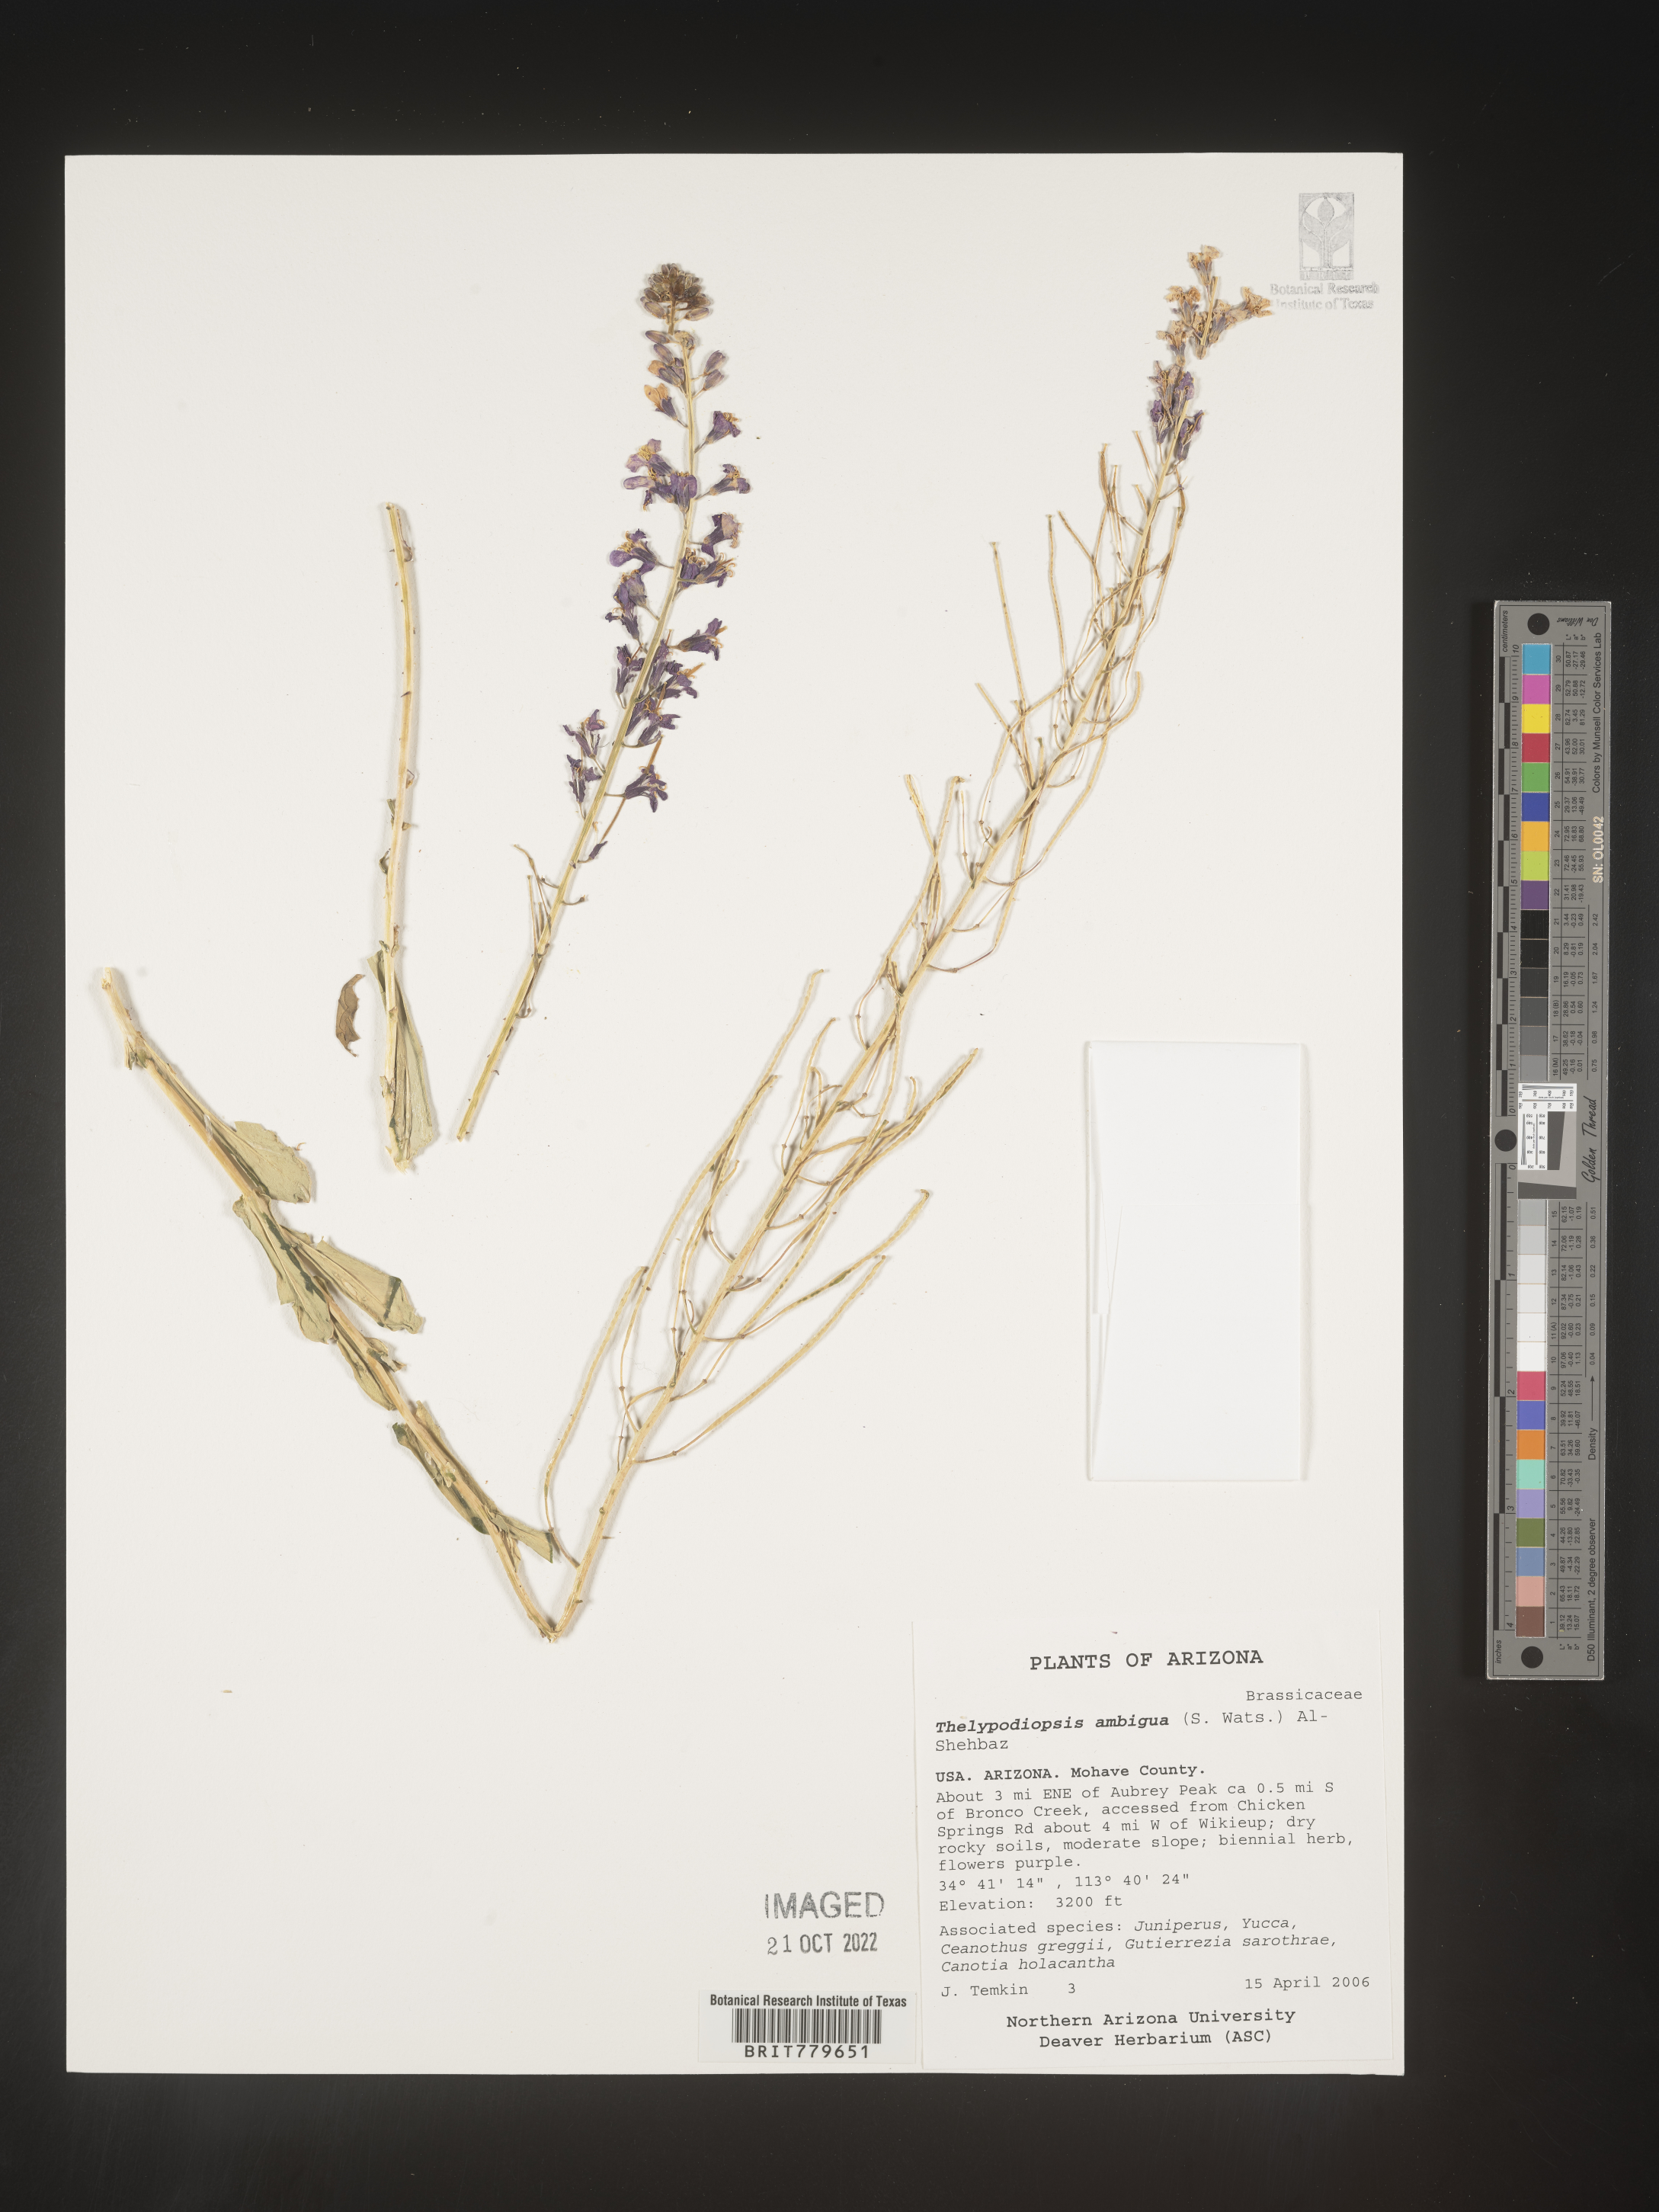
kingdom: Plantae
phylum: Tracheophyta
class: Magnoliopsida
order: Brassicales
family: Brassicaceae
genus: Thelypodiopsis
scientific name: Thelypodiopsis ambigua
